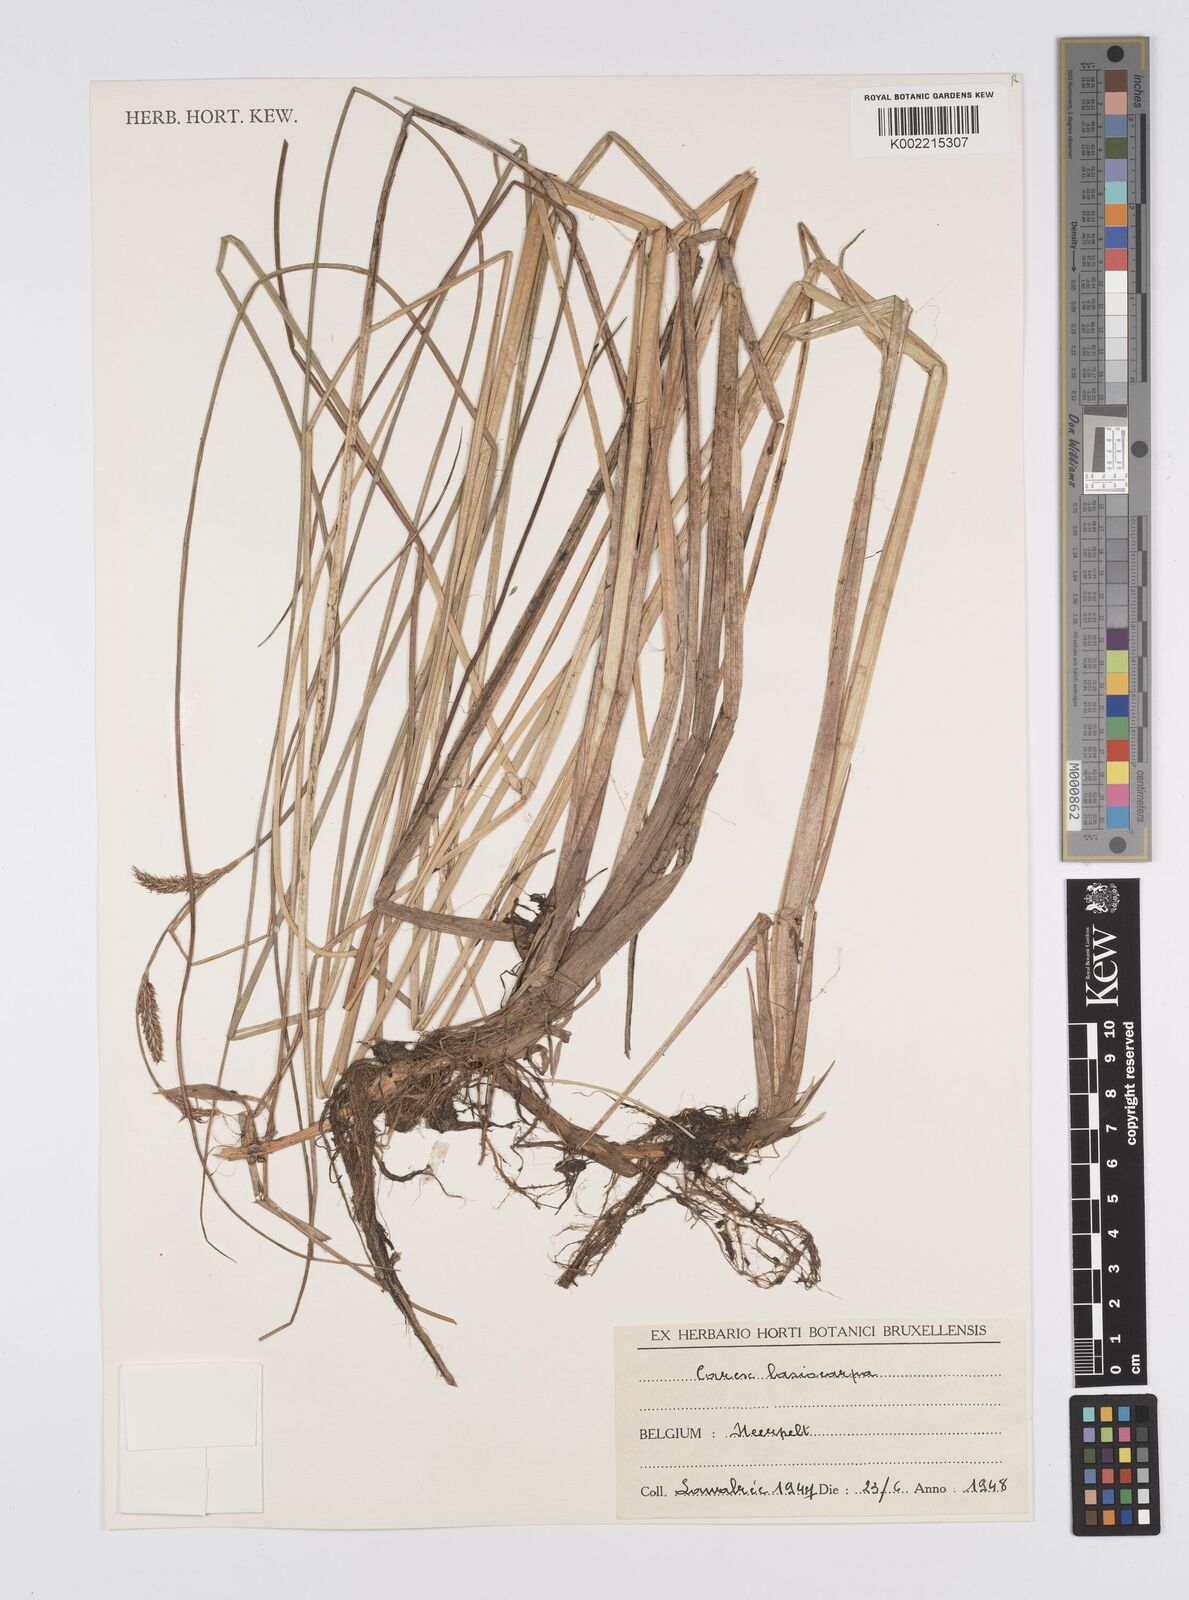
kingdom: Plantae
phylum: Tracheophyta
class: Liliopsida
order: Poales
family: Cyperaceae
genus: Carex
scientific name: Carex lasiocarpa
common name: Slender sedge
